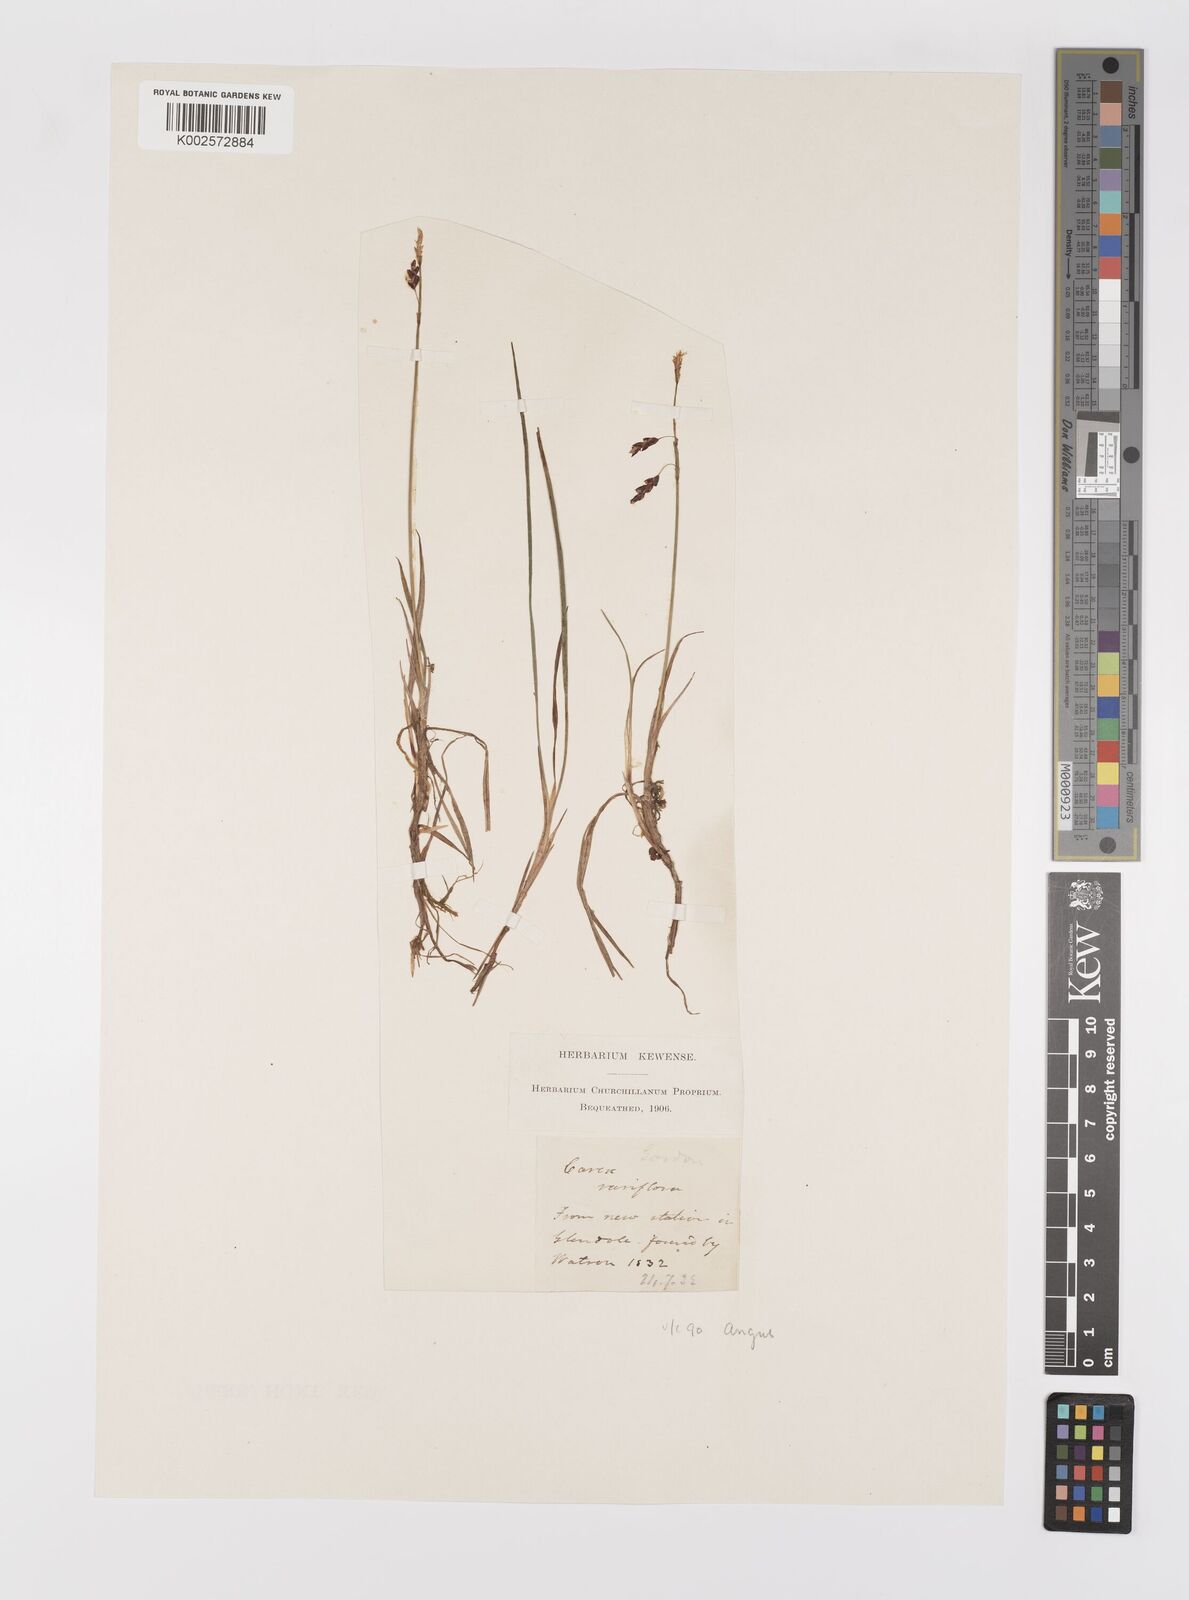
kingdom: Plantae
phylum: Tracheophyta
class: Liliopsida
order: Poales
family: Cyperaceae
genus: Carex
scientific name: Carex rariflora
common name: Loose-flowered alpine sedge
